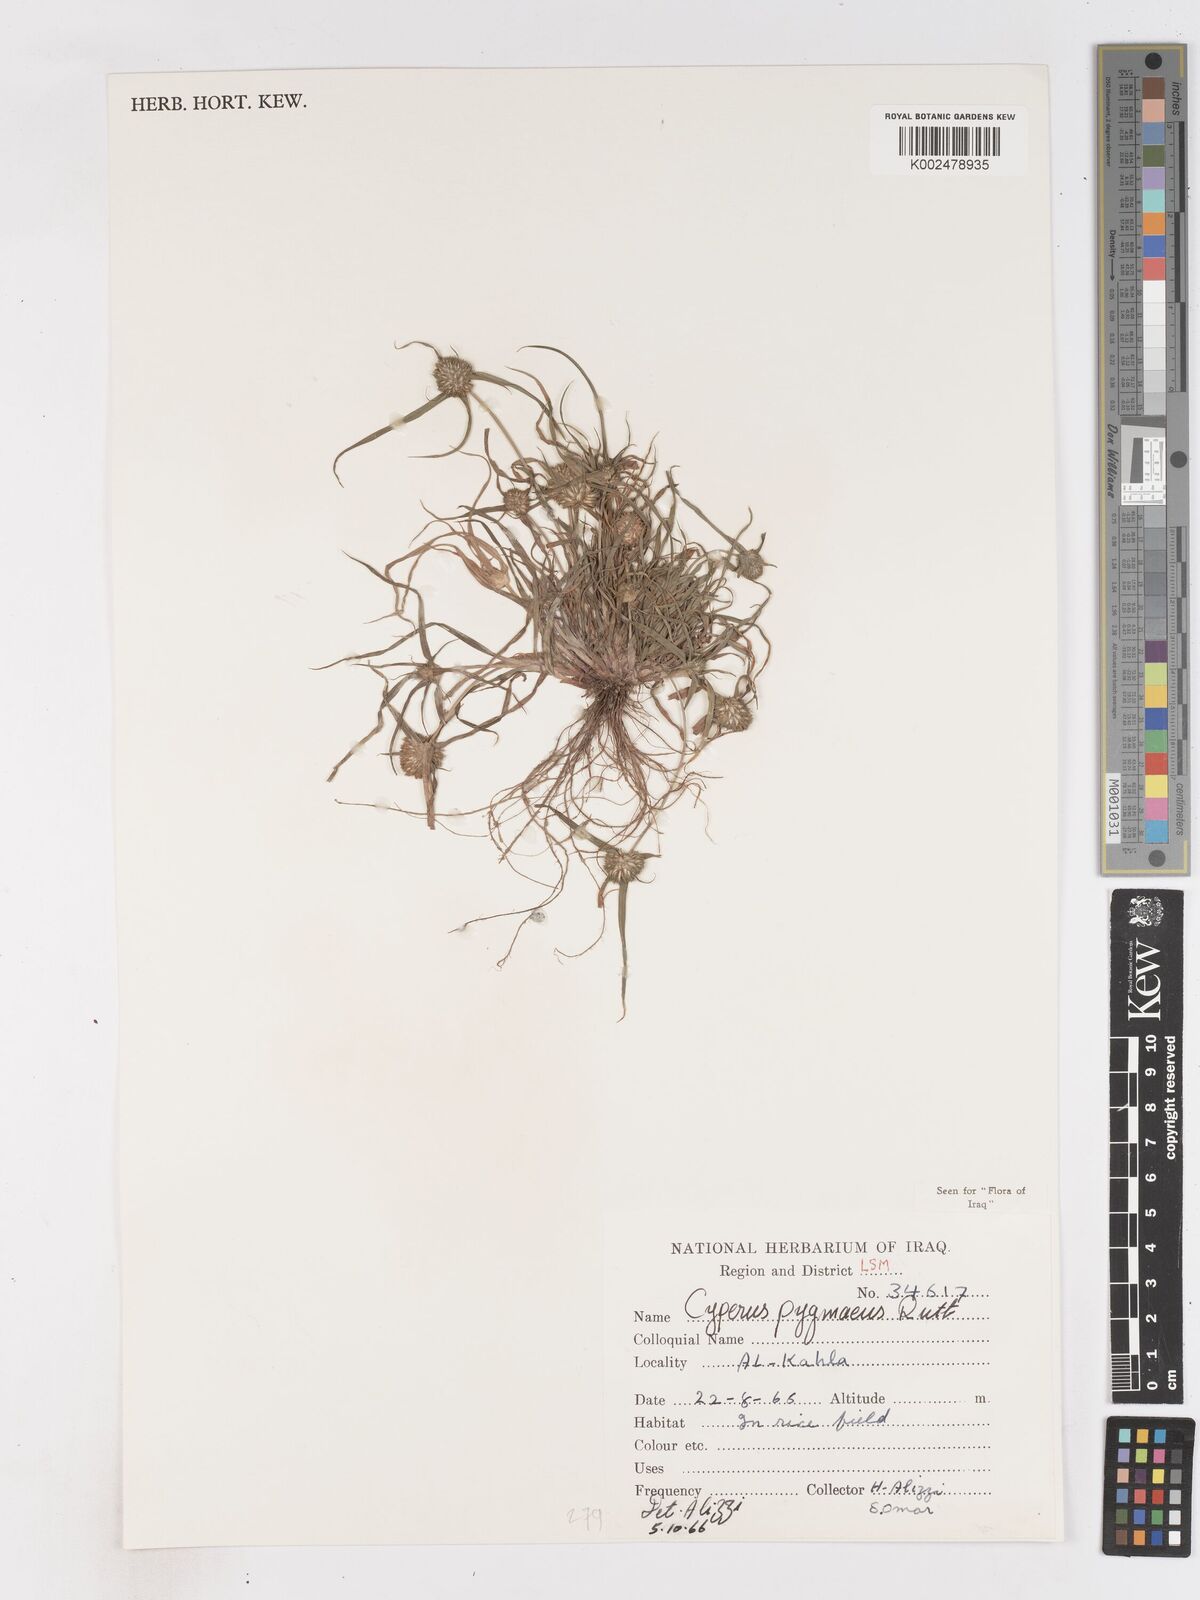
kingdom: Plantae
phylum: Tracheophyta
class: Liliopsida
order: Poales
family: Cyperaceae
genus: Cyperus
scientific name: Cyperus michelianus
